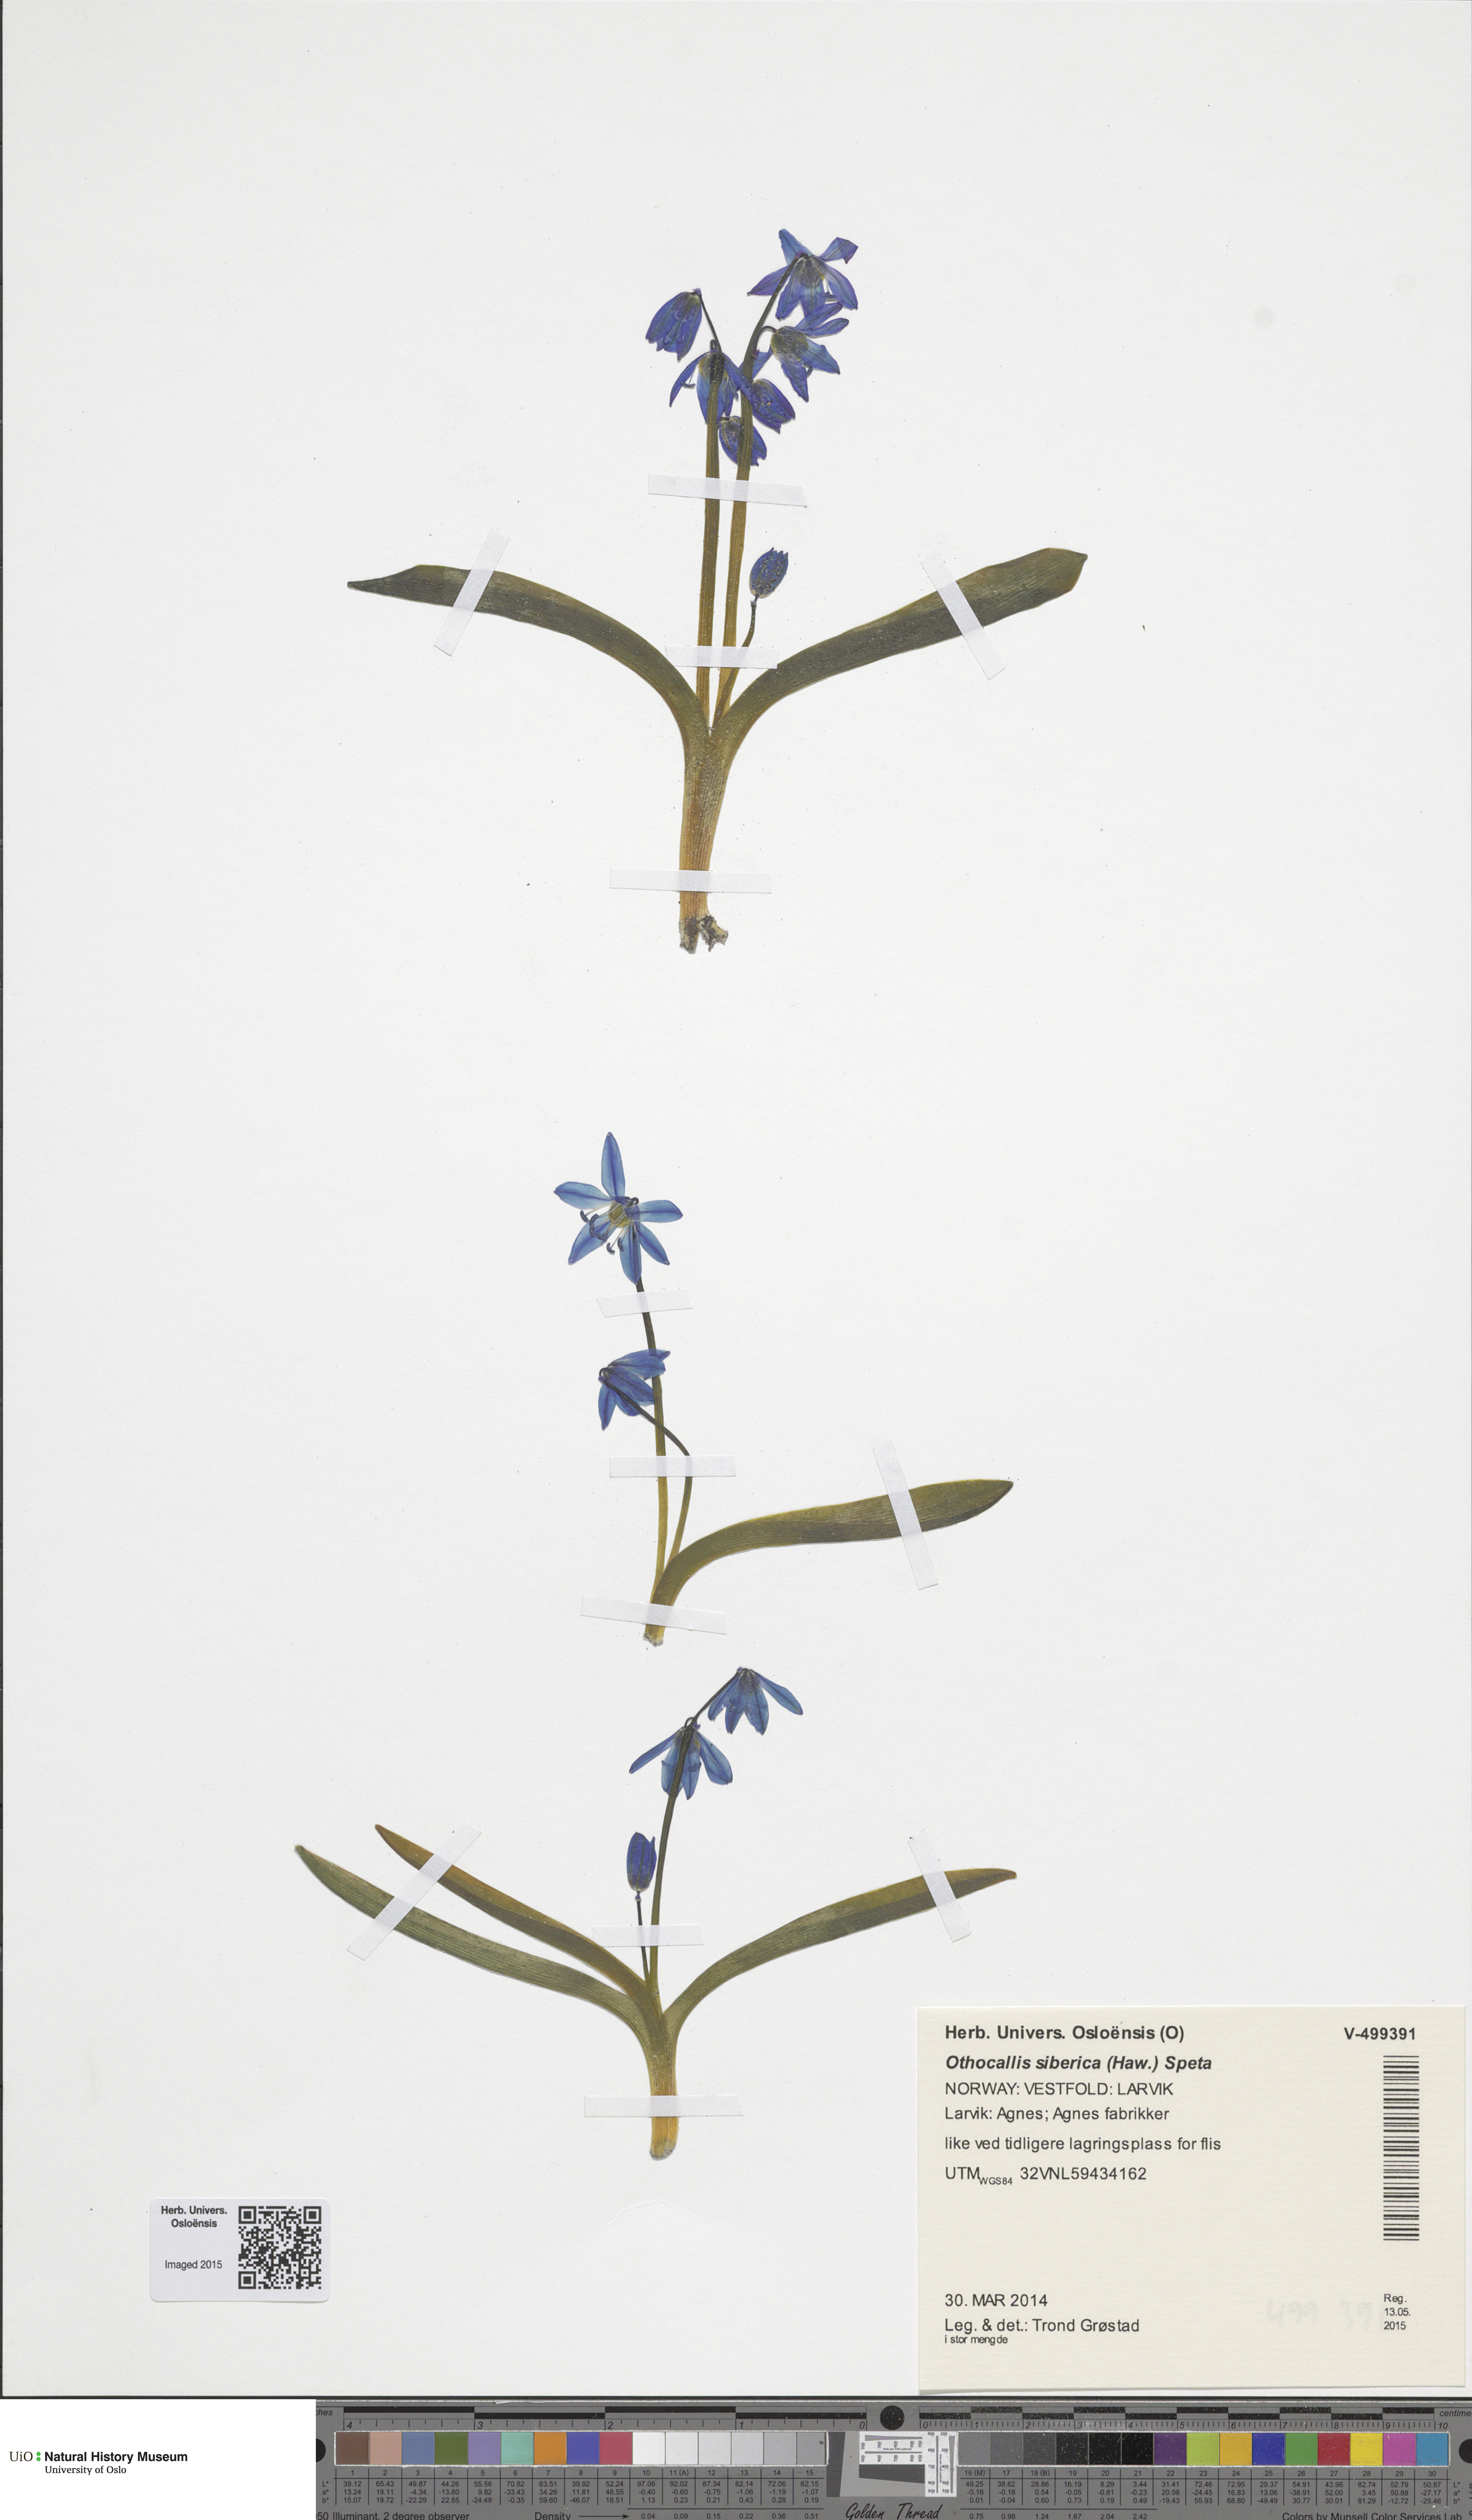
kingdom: Plantae
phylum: Tracheophyta
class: Liliopsida
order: Asparagales
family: Asparagaceae
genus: Scilla
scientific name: Scilla siberica
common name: Siberian squill
